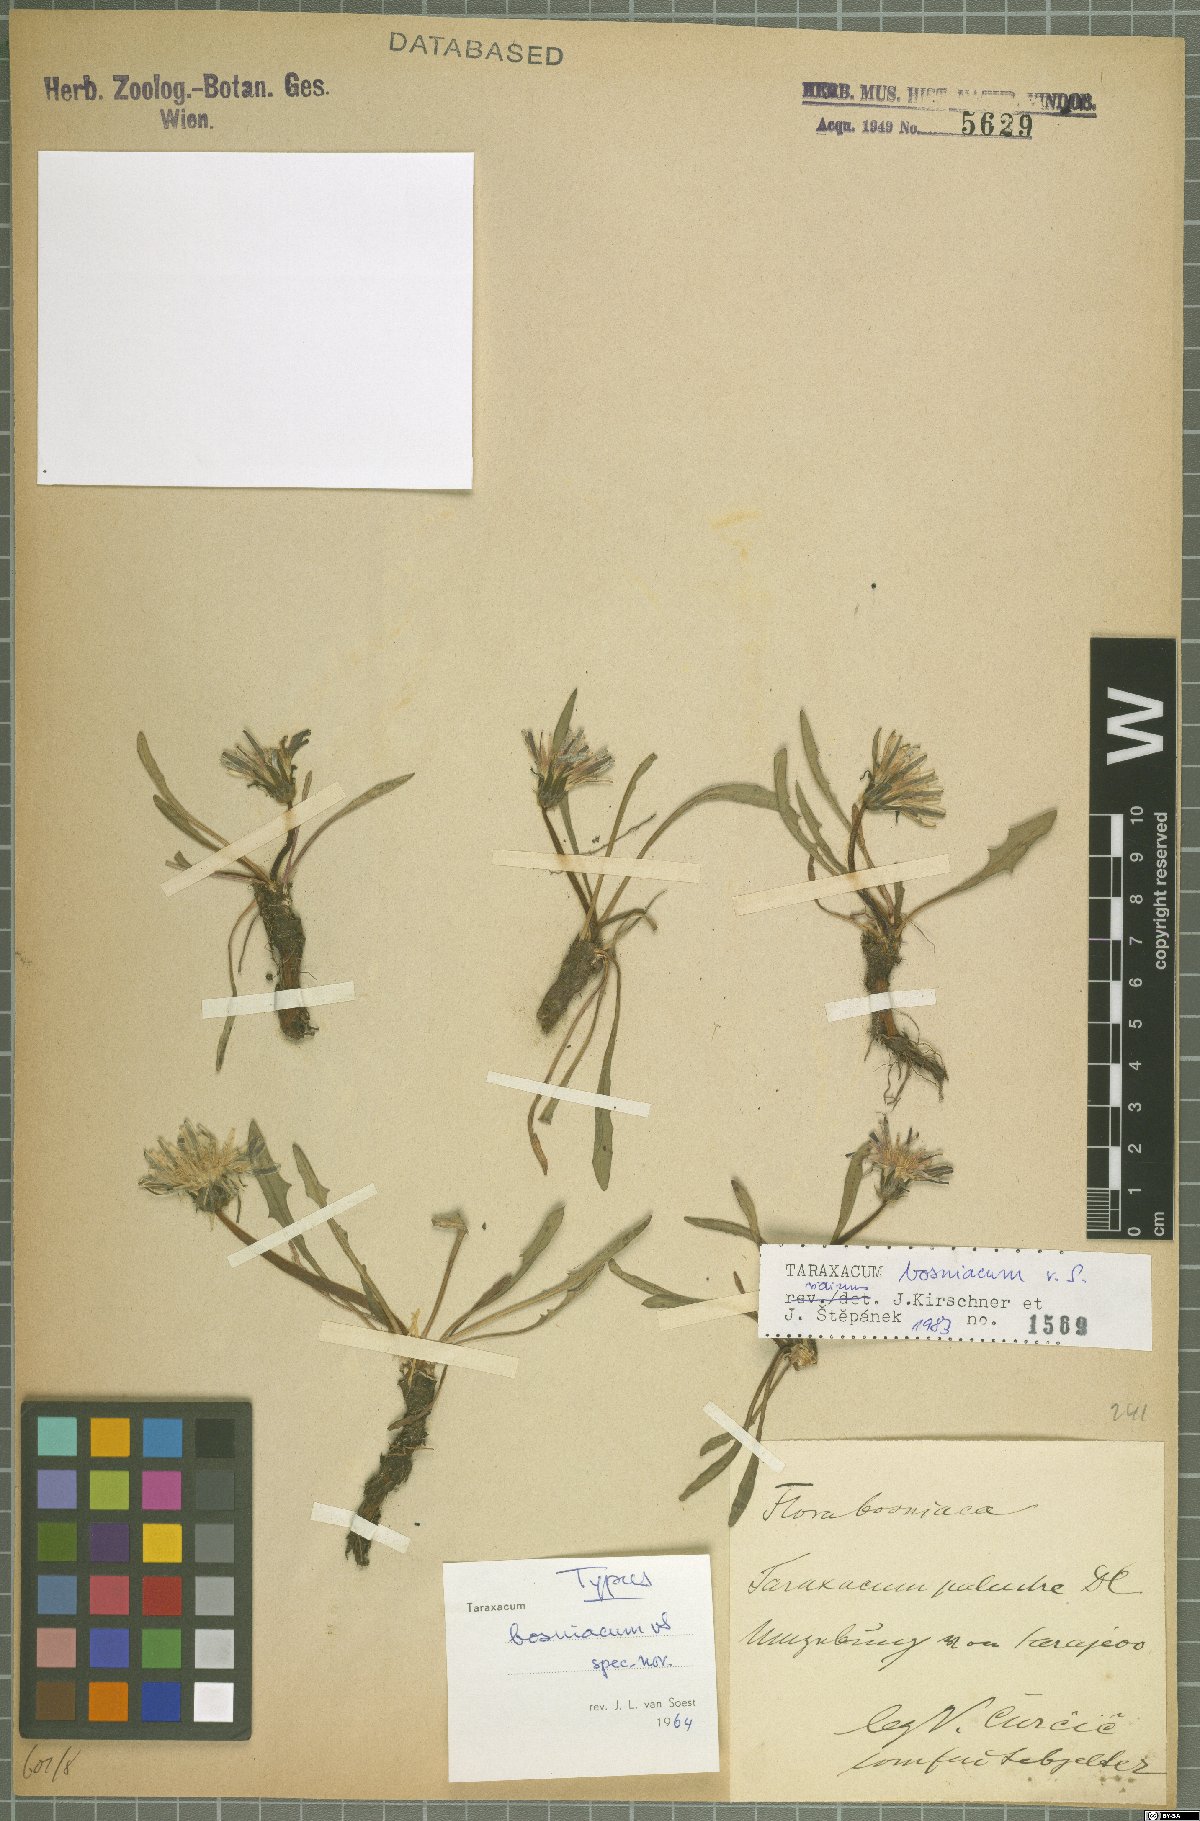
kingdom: Plantae
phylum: Tracheophyta
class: Magnoliopsida
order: Asterales
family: Asteraceae
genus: Taraxacum
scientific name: Taraxacum bosniacum
